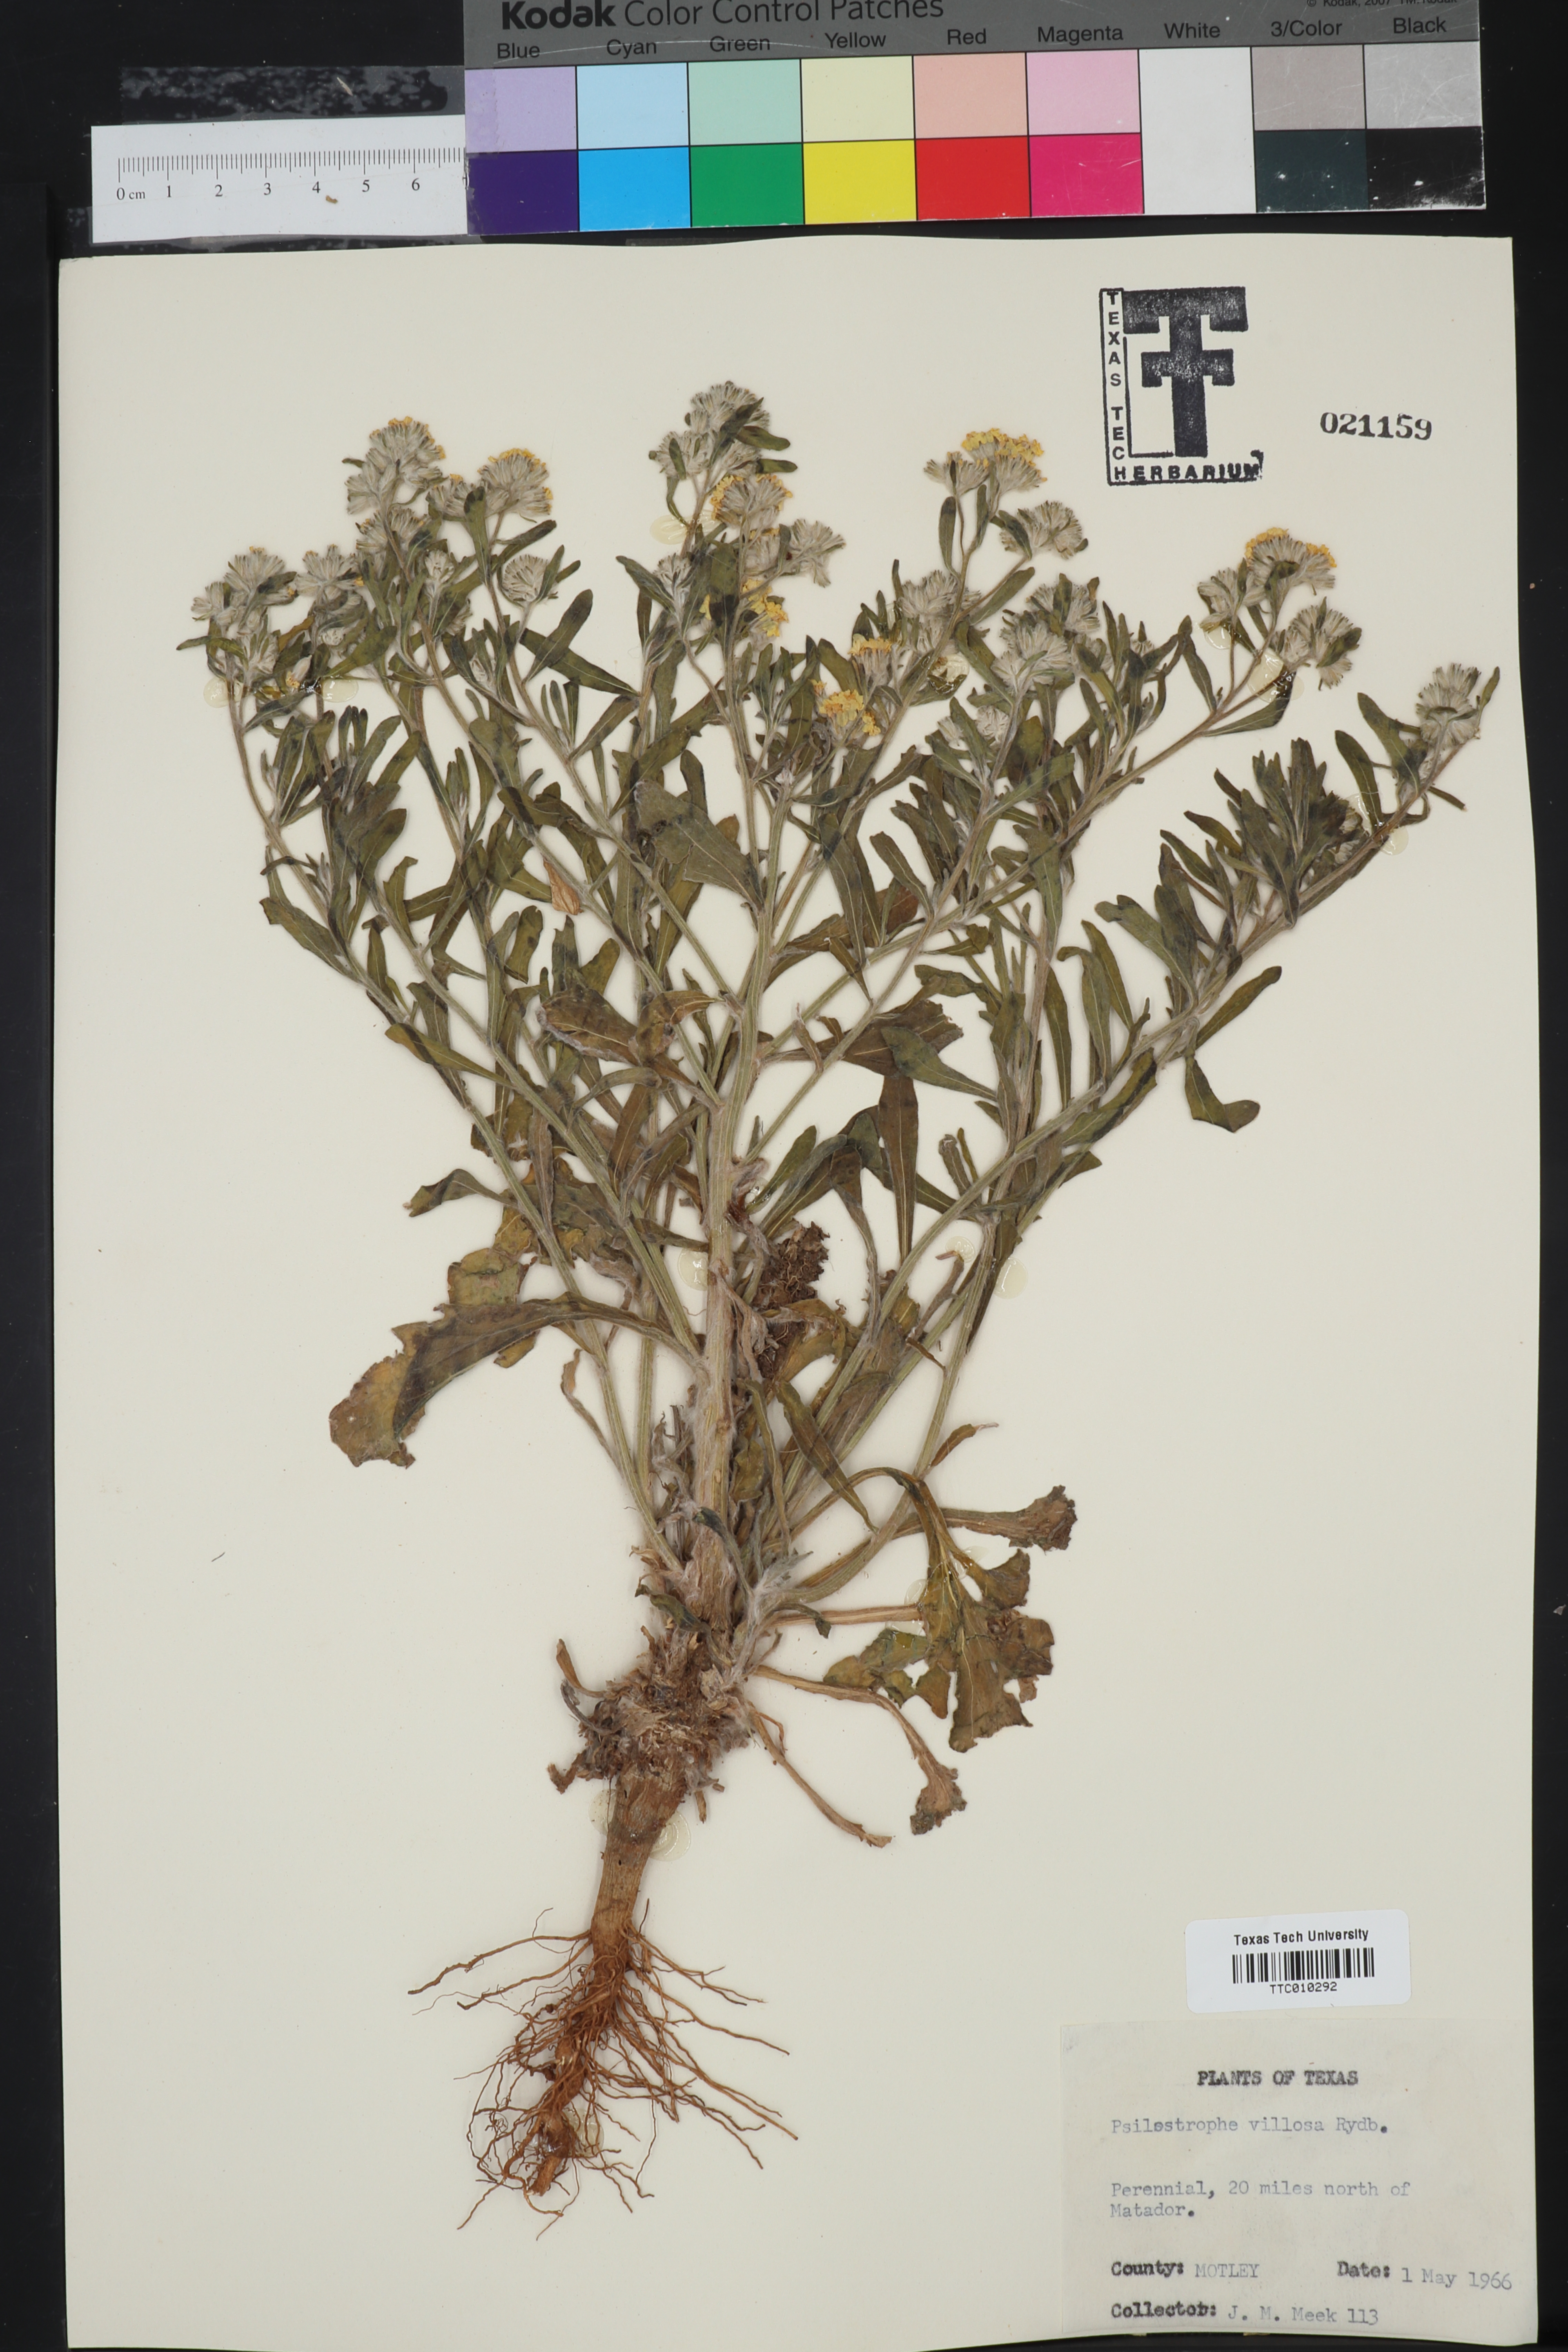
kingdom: Plantae
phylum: Tracheophyta
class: Magnoliopsida
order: Asterales
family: Asteraceae
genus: Psilostrophe
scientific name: Psilostrophe villosa
